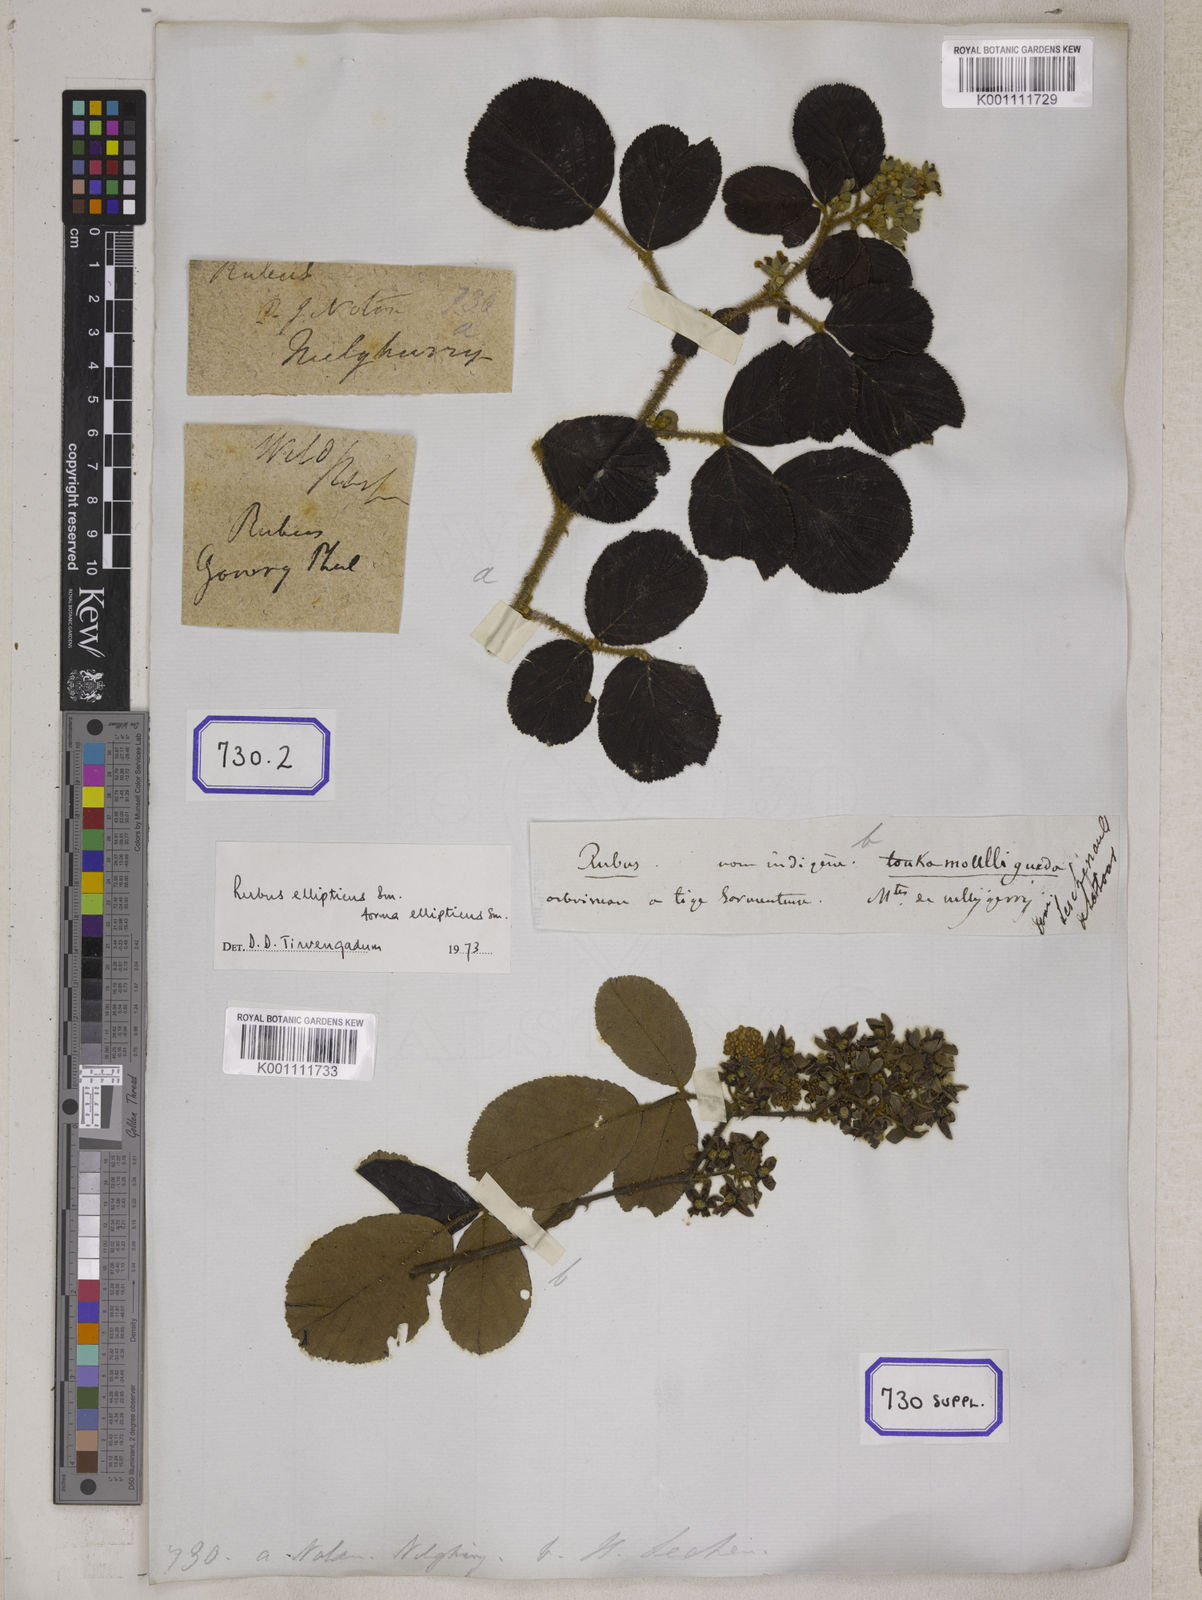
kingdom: Plantae
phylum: Tracheophyta
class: Magnoliopsida
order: Rosales
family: Rosaceae
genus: Rubus
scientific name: Rubus
